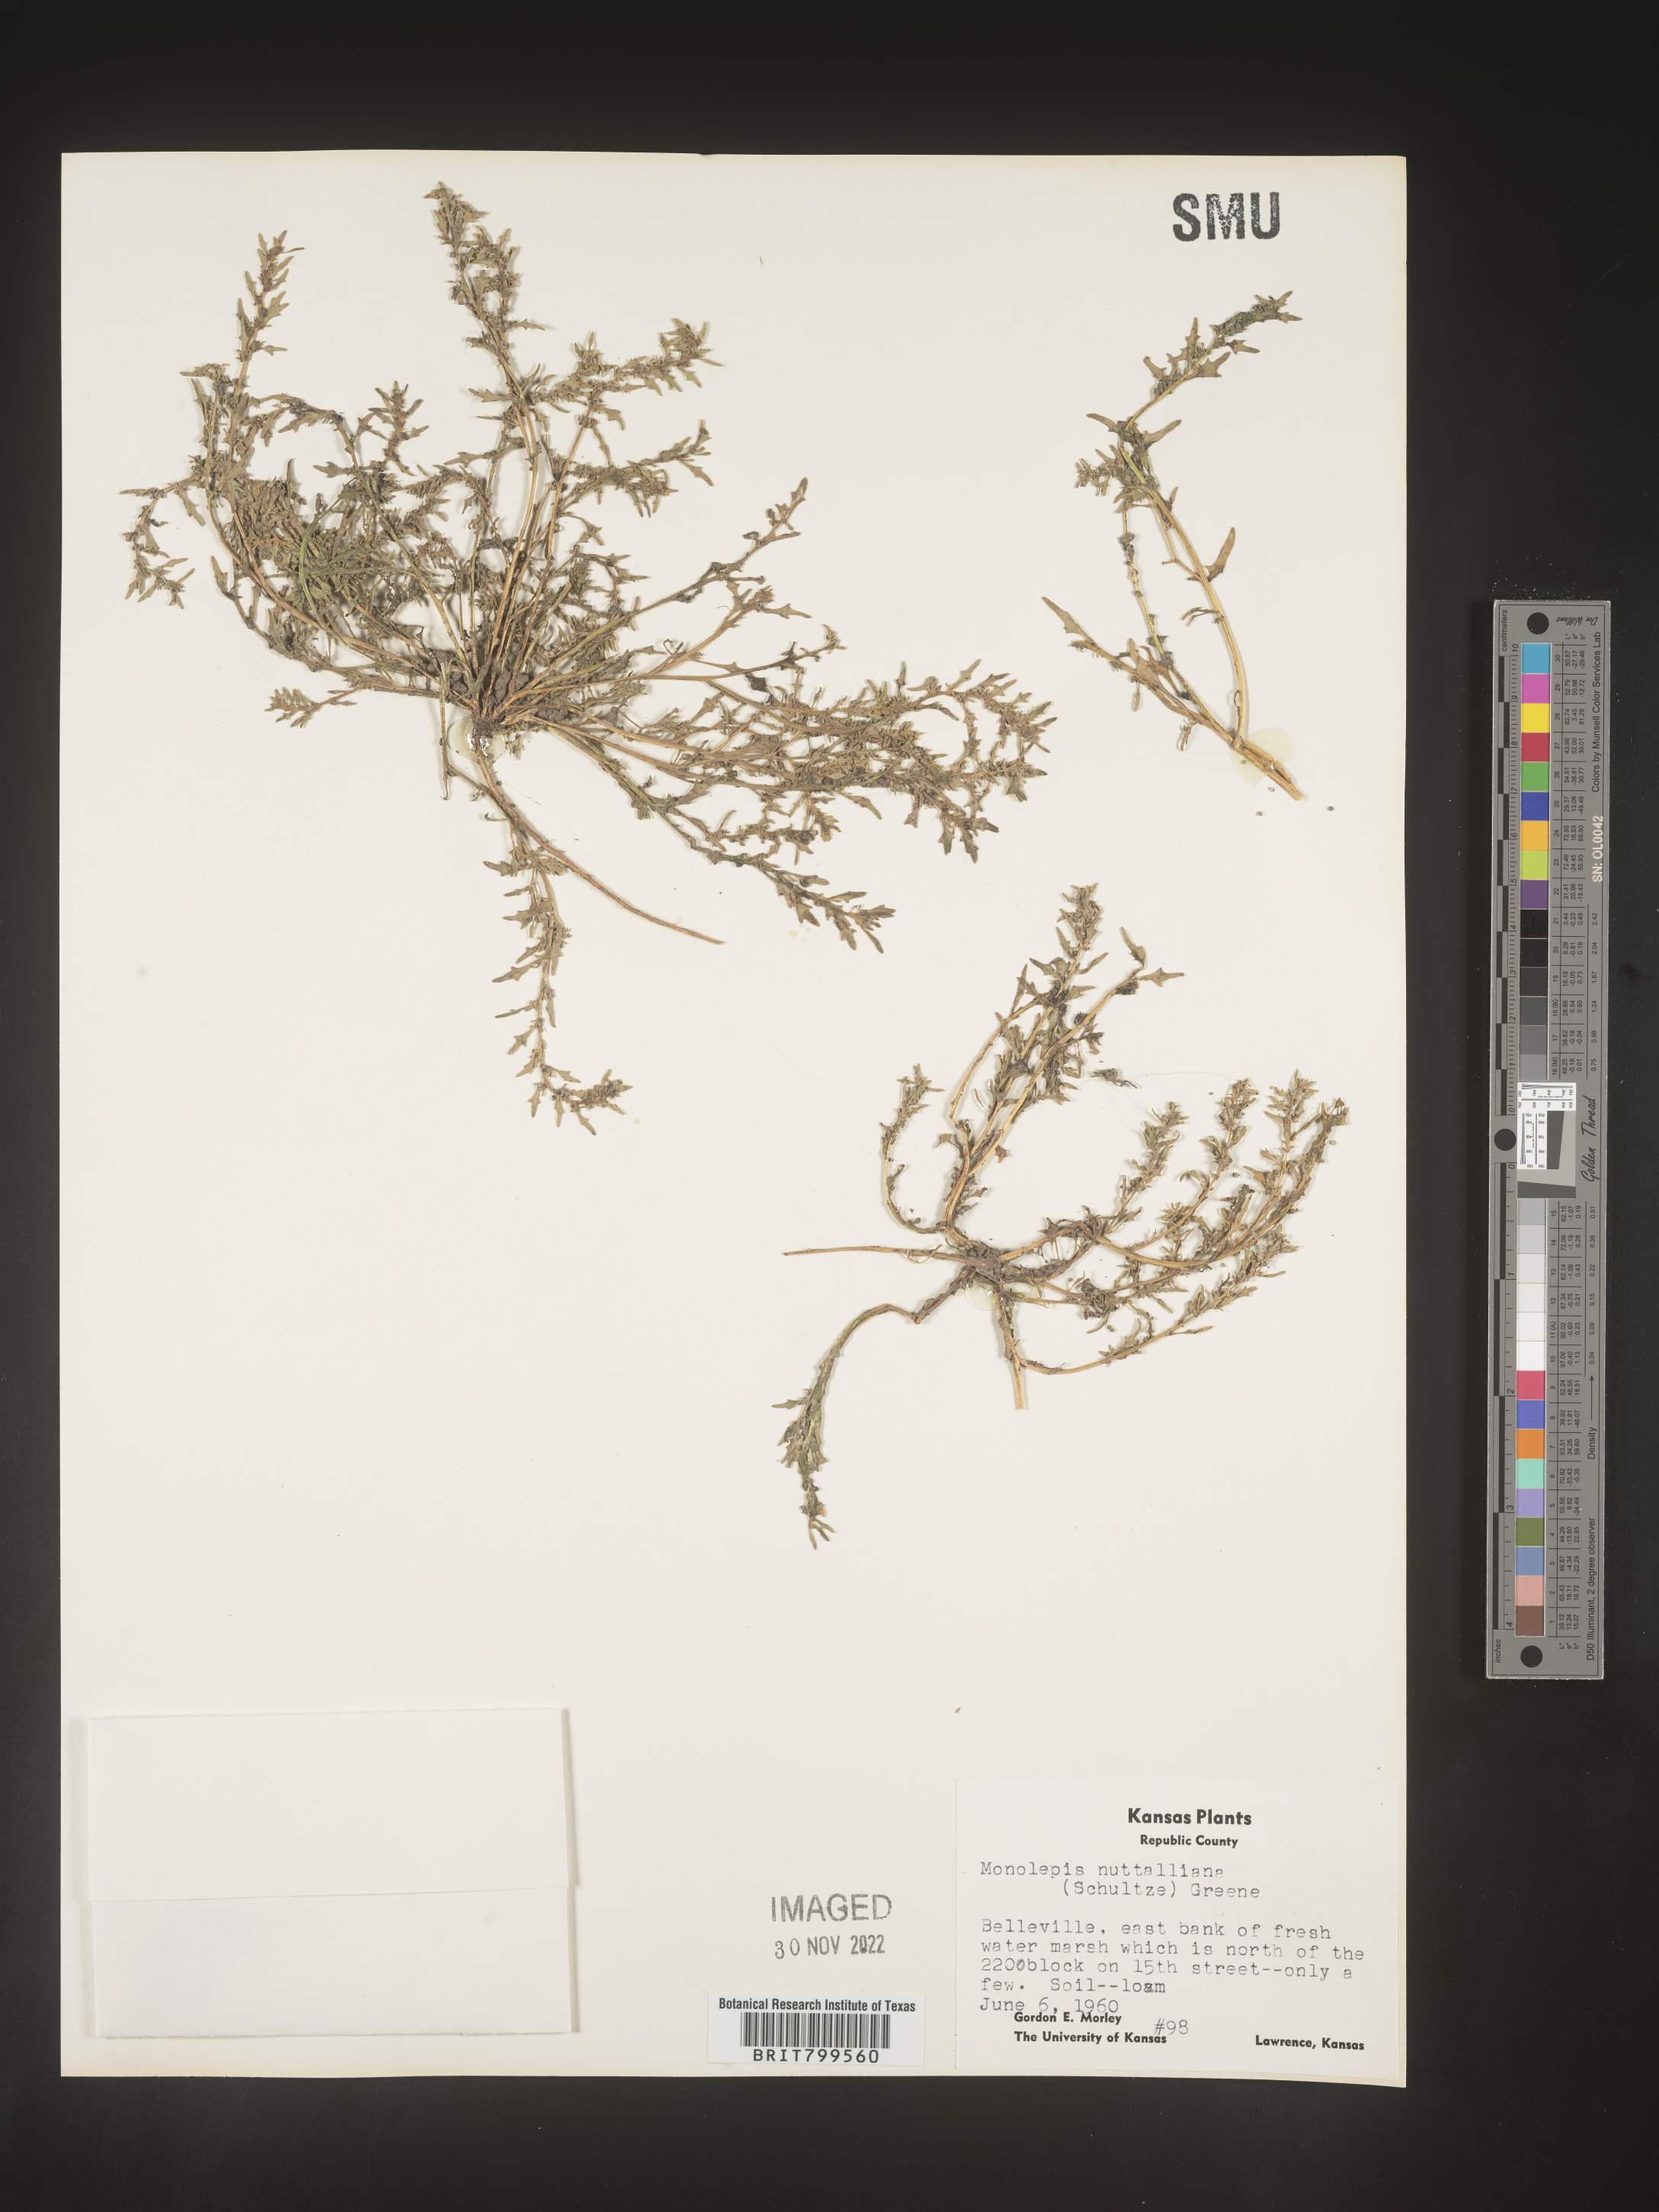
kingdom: Plantae
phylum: Tracheophyta
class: Magnoliopsida
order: Caryophyllales
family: Amaranthaceae
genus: Blitum
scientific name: Blitum
